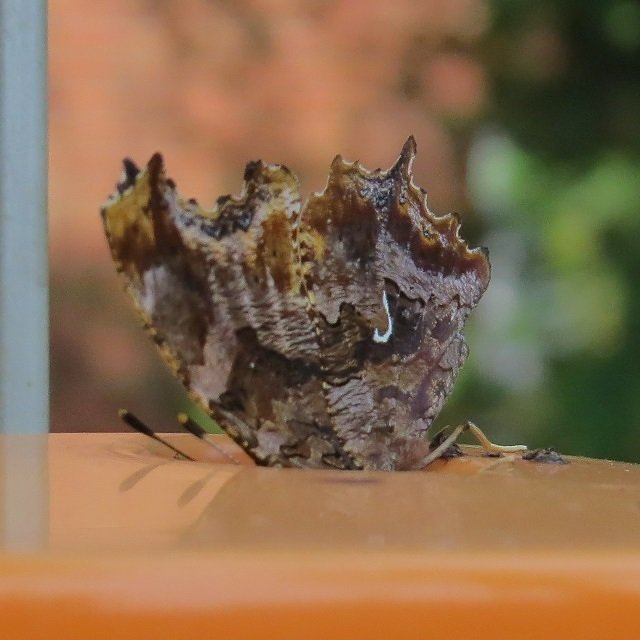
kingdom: Animalia
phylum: Arthropoda
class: Insecta
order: Lepidoptera
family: Nymphalidae
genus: Polygonia
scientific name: Polygonia comma
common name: Eastern Comma
